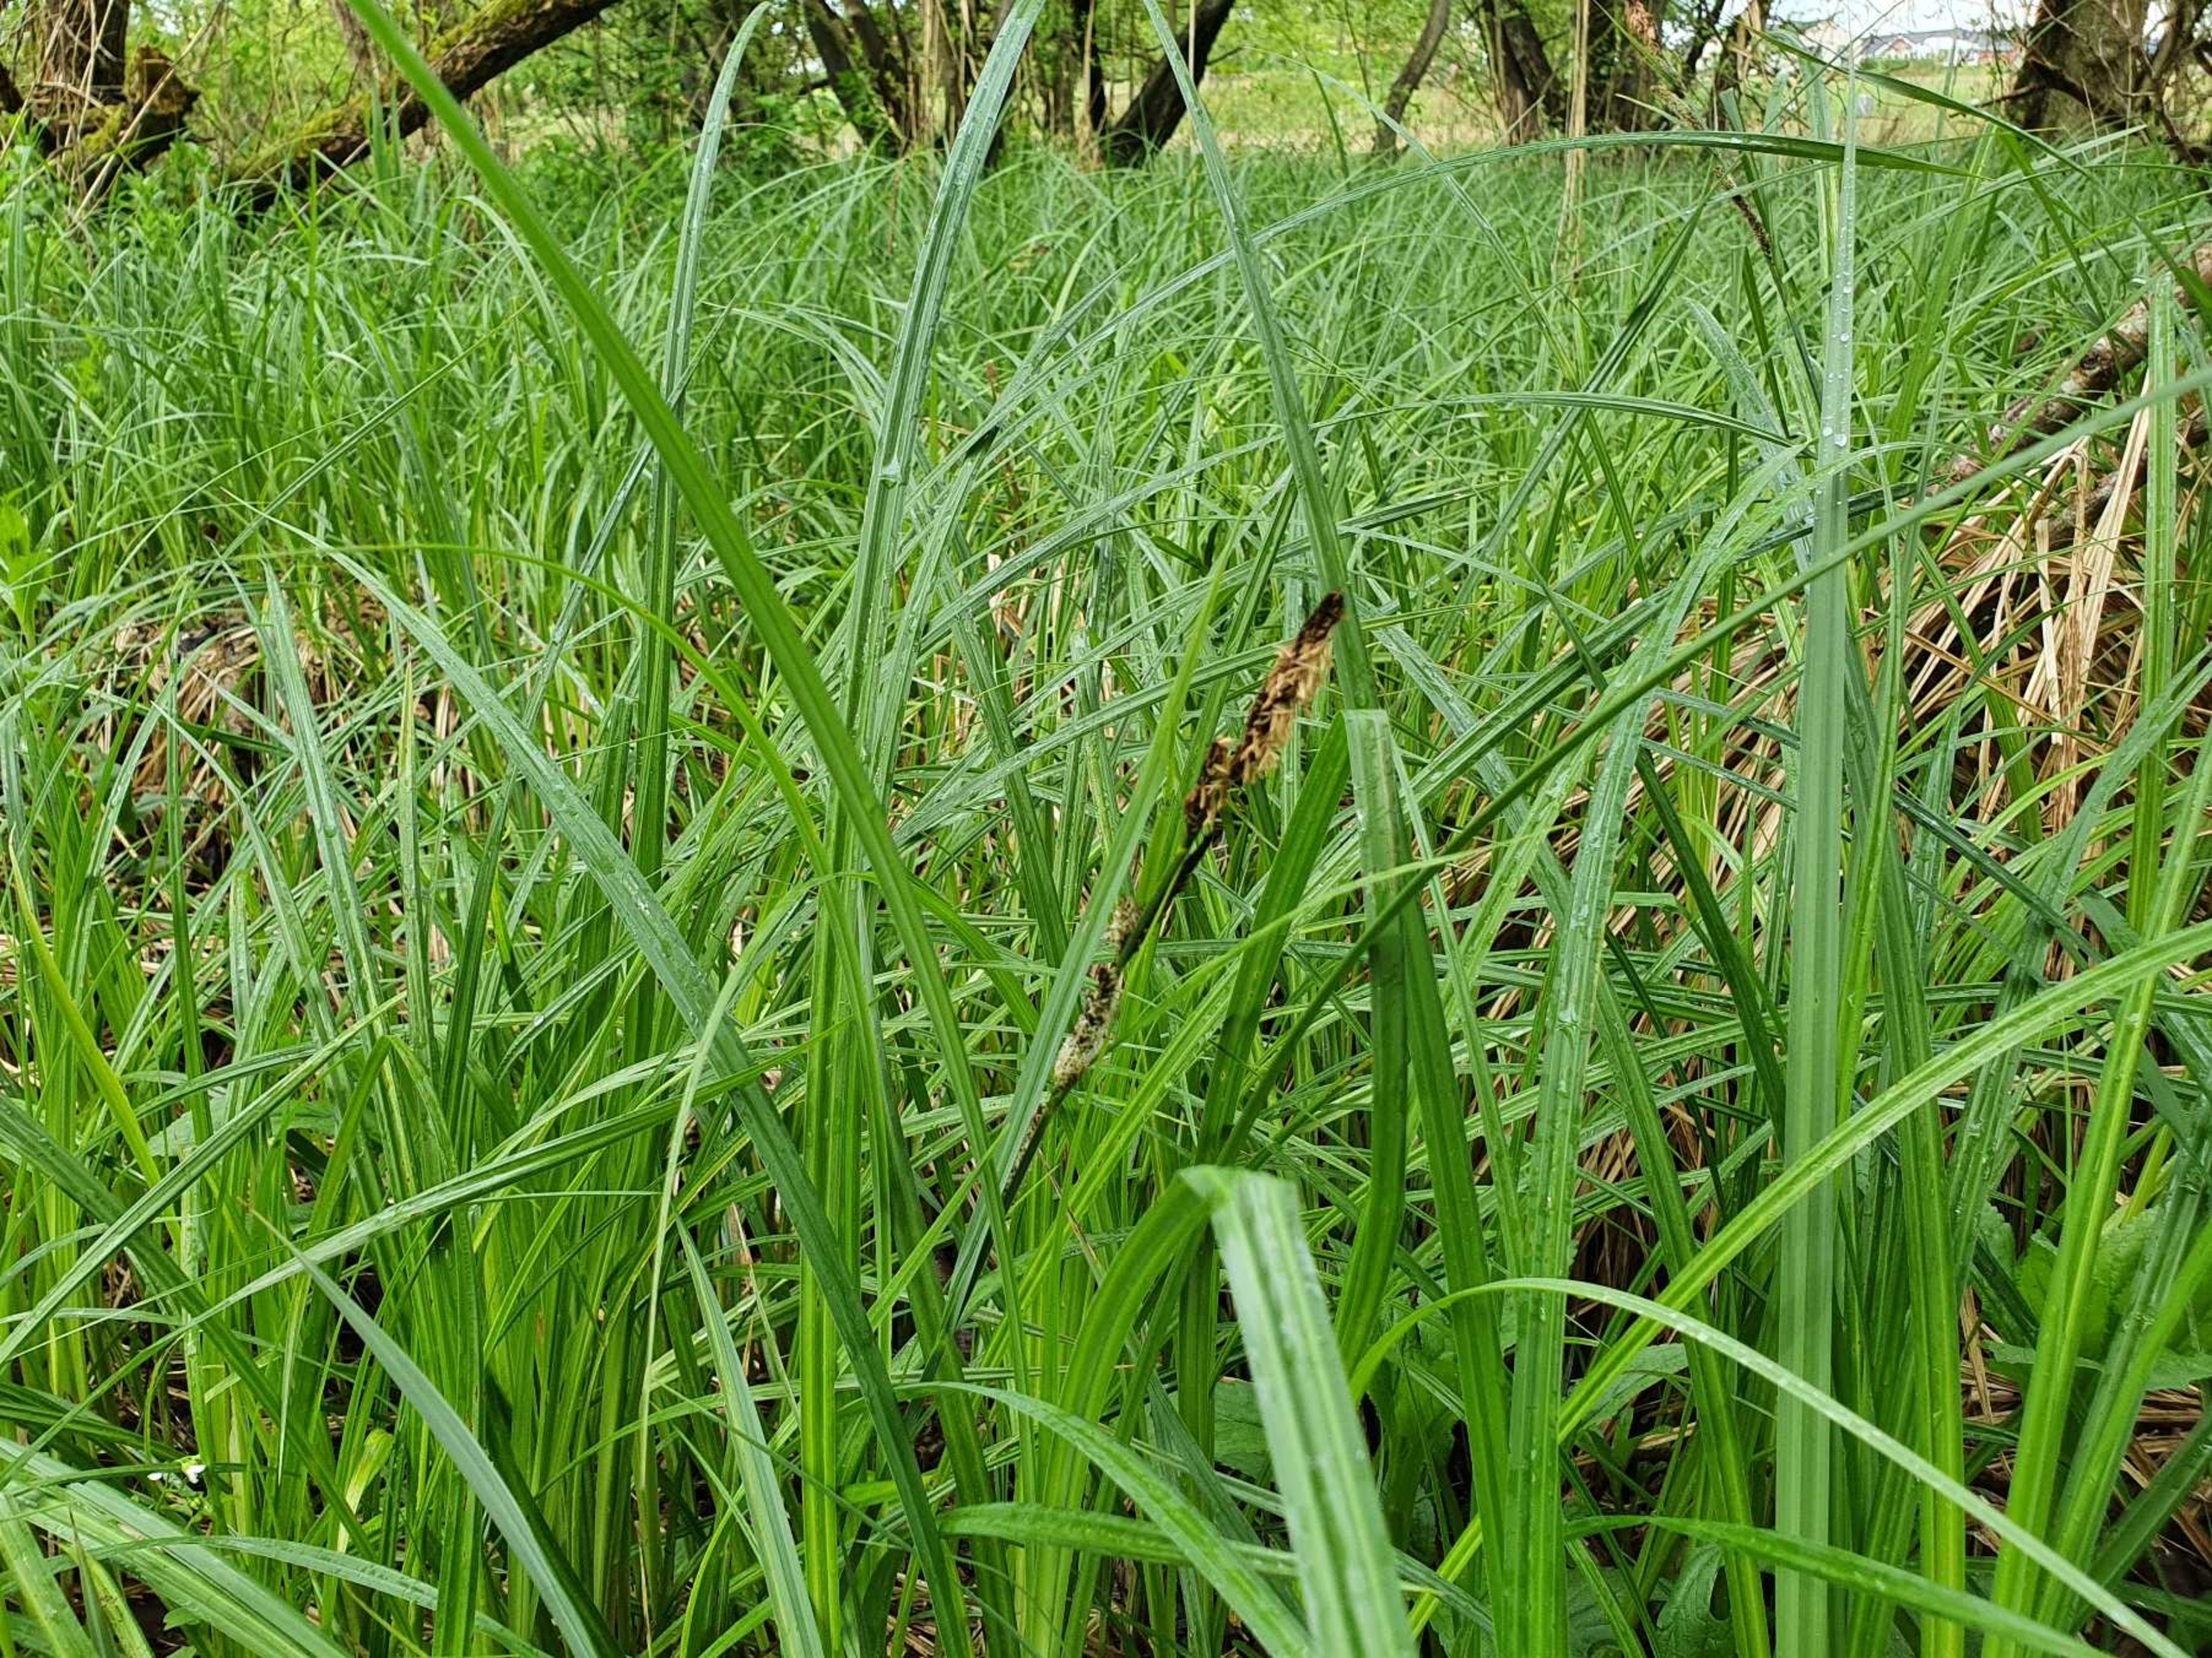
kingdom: Plantae
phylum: Tracheophyta
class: Liliopsida
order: Poales
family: Cyperaceae
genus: Carex
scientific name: Carex acutiformis
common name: Kær-star
